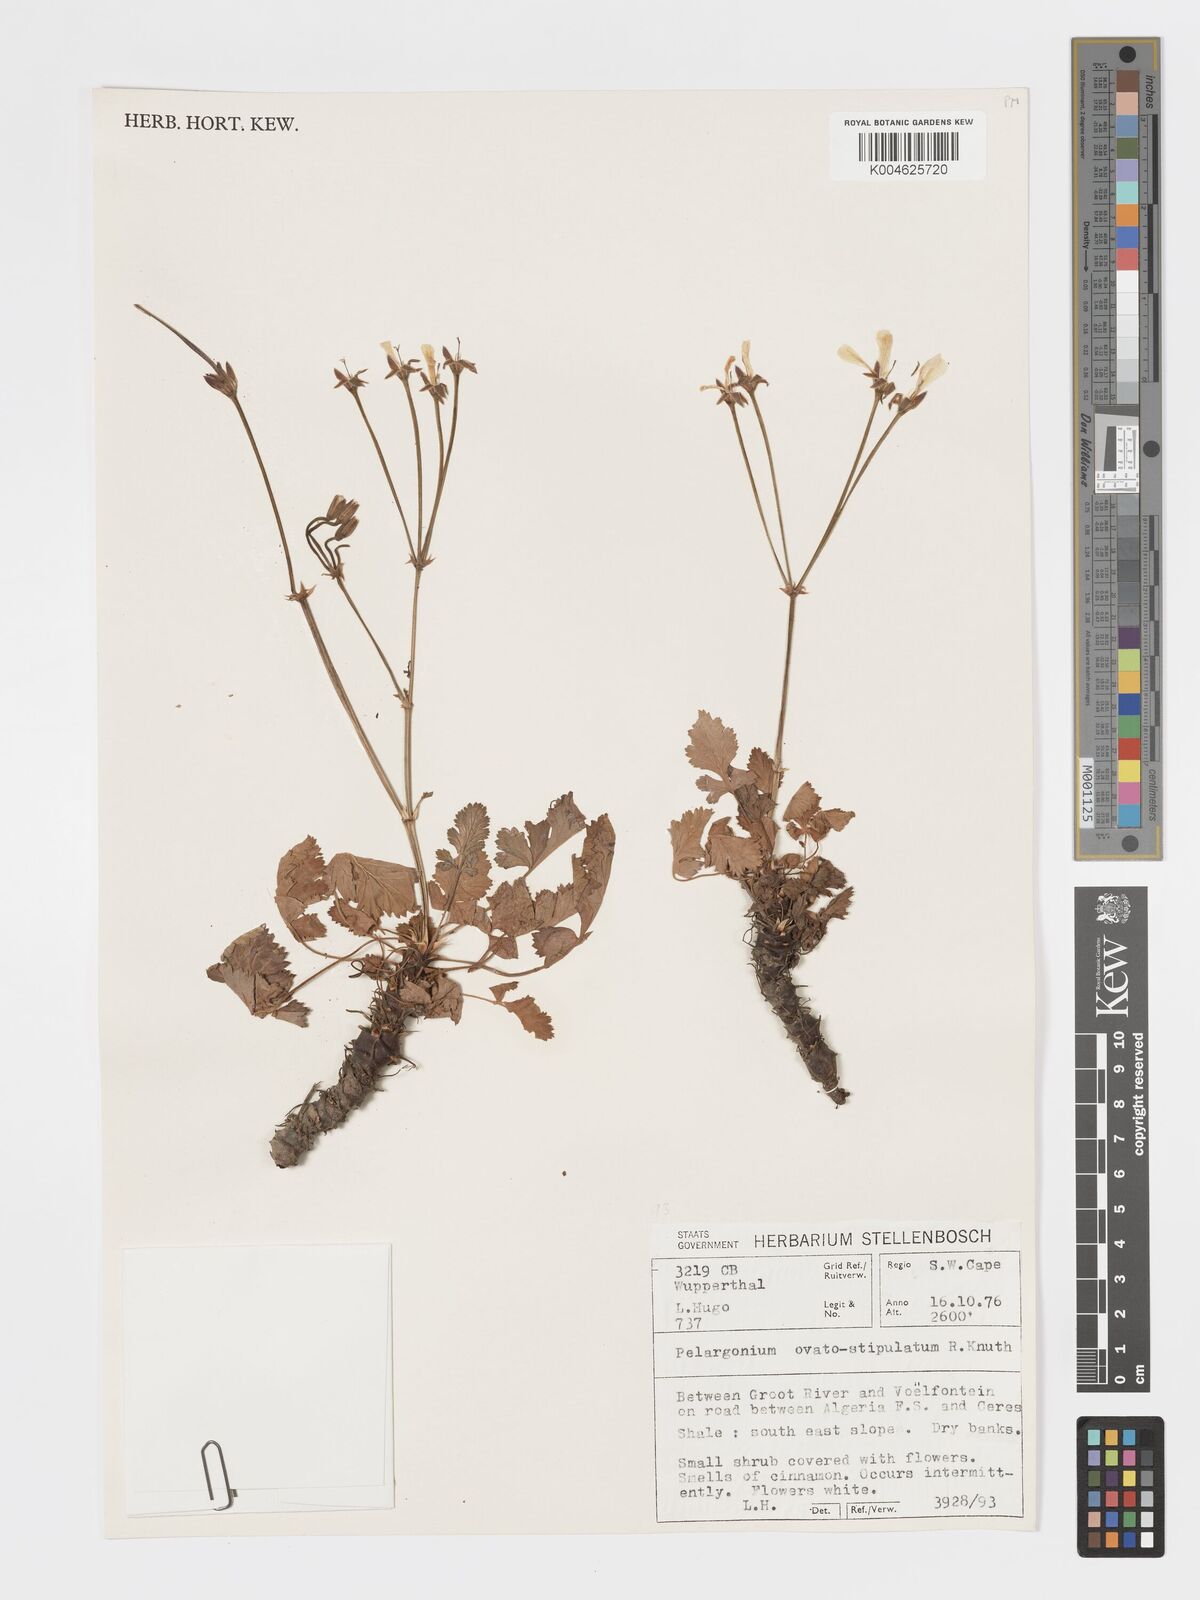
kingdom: Plantae
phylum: Tracheophyta
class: Magnoliopsida
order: Geraniales
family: Geraniaceae
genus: Pelargonium
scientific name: Pelargonium stipulaceum
